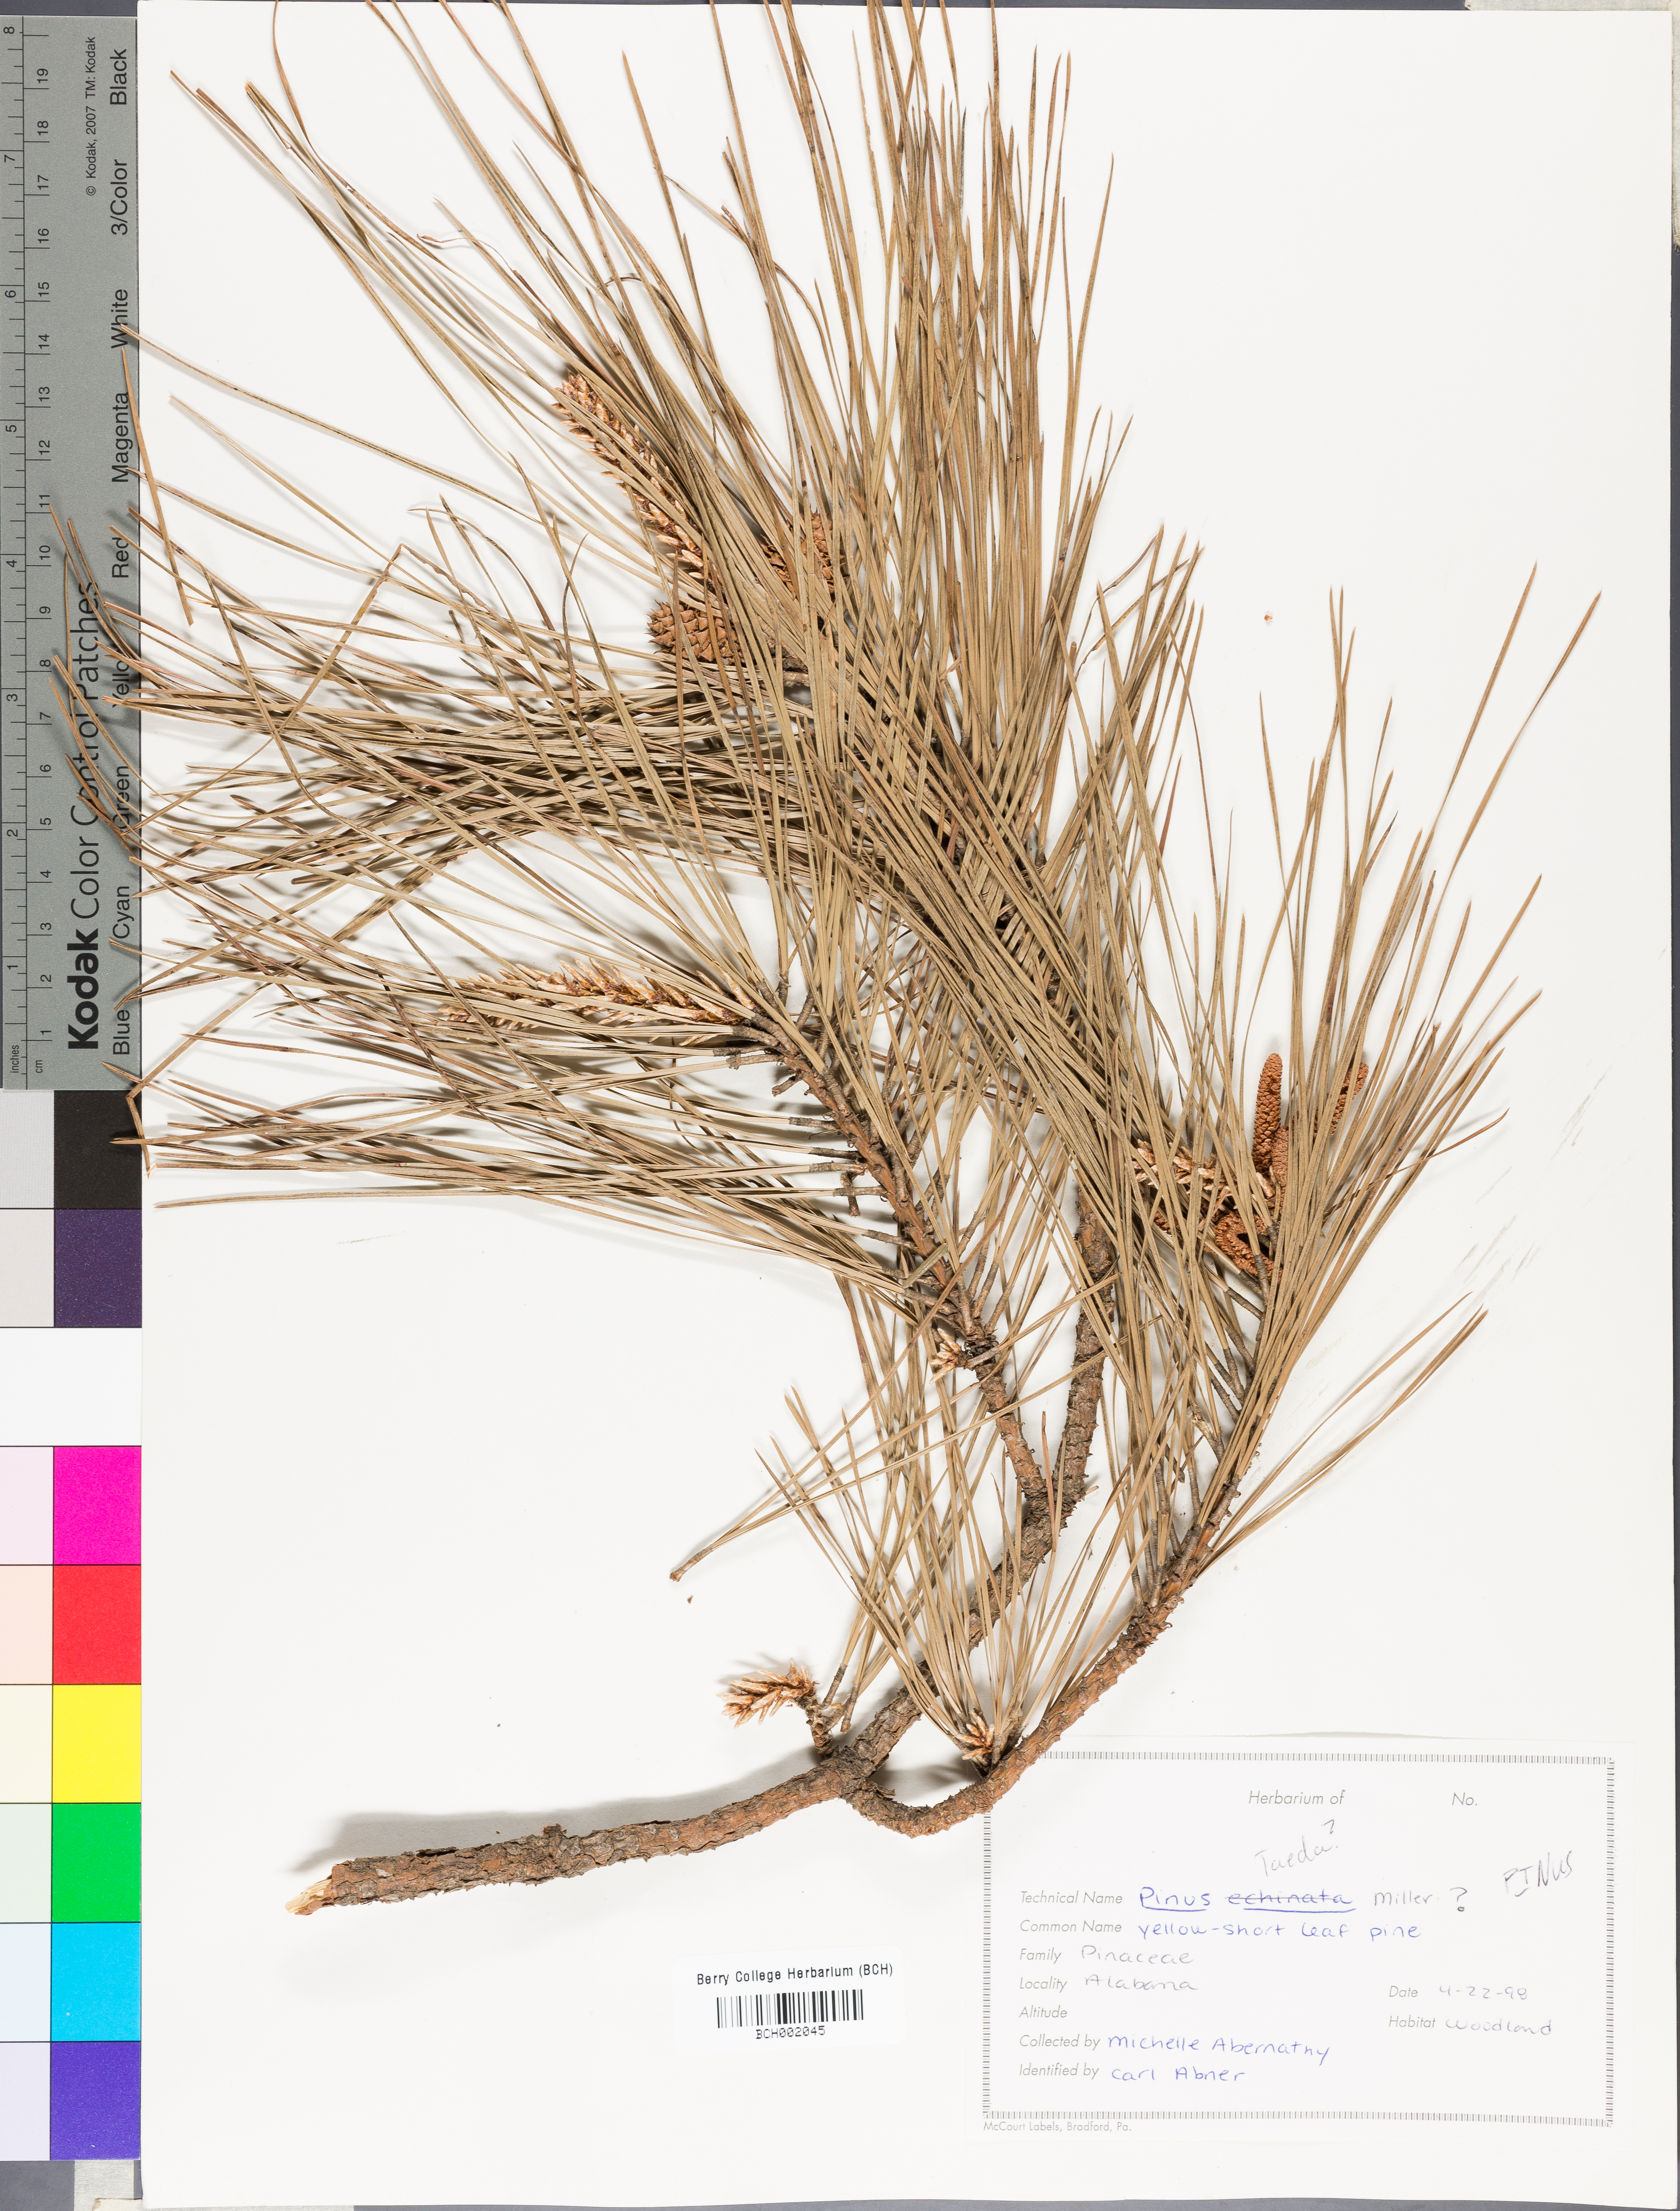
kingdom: Plantae
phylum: Tracheophyta
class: Pinopsida
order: Pinales
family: Pinaceae
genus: Pinus
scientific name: Pinus
